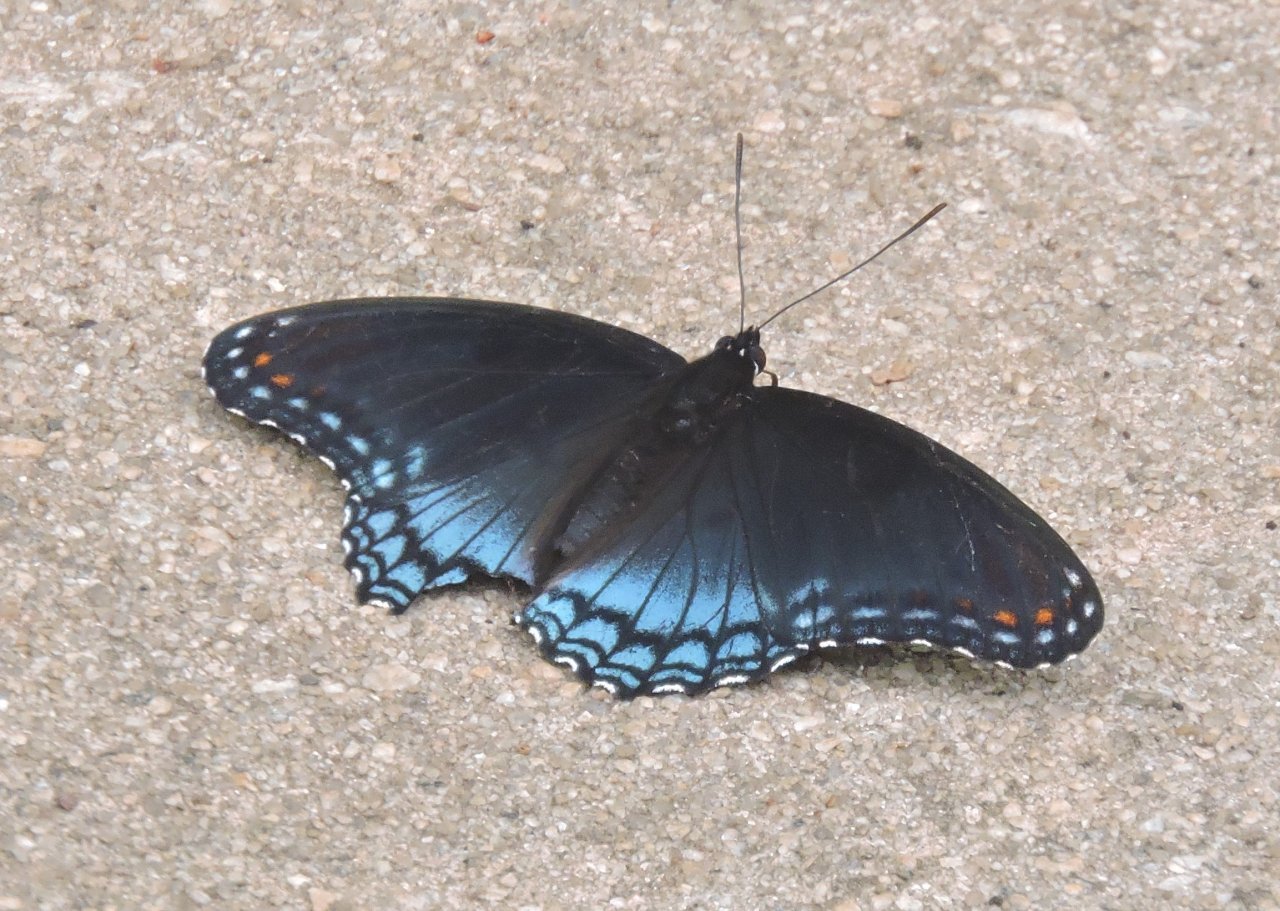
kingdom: Animalia
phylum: Arthropoda
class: Insecta
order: Lepidoptera
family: Nymphalidae
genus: Limenitis
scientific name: Limenitis astyanax
